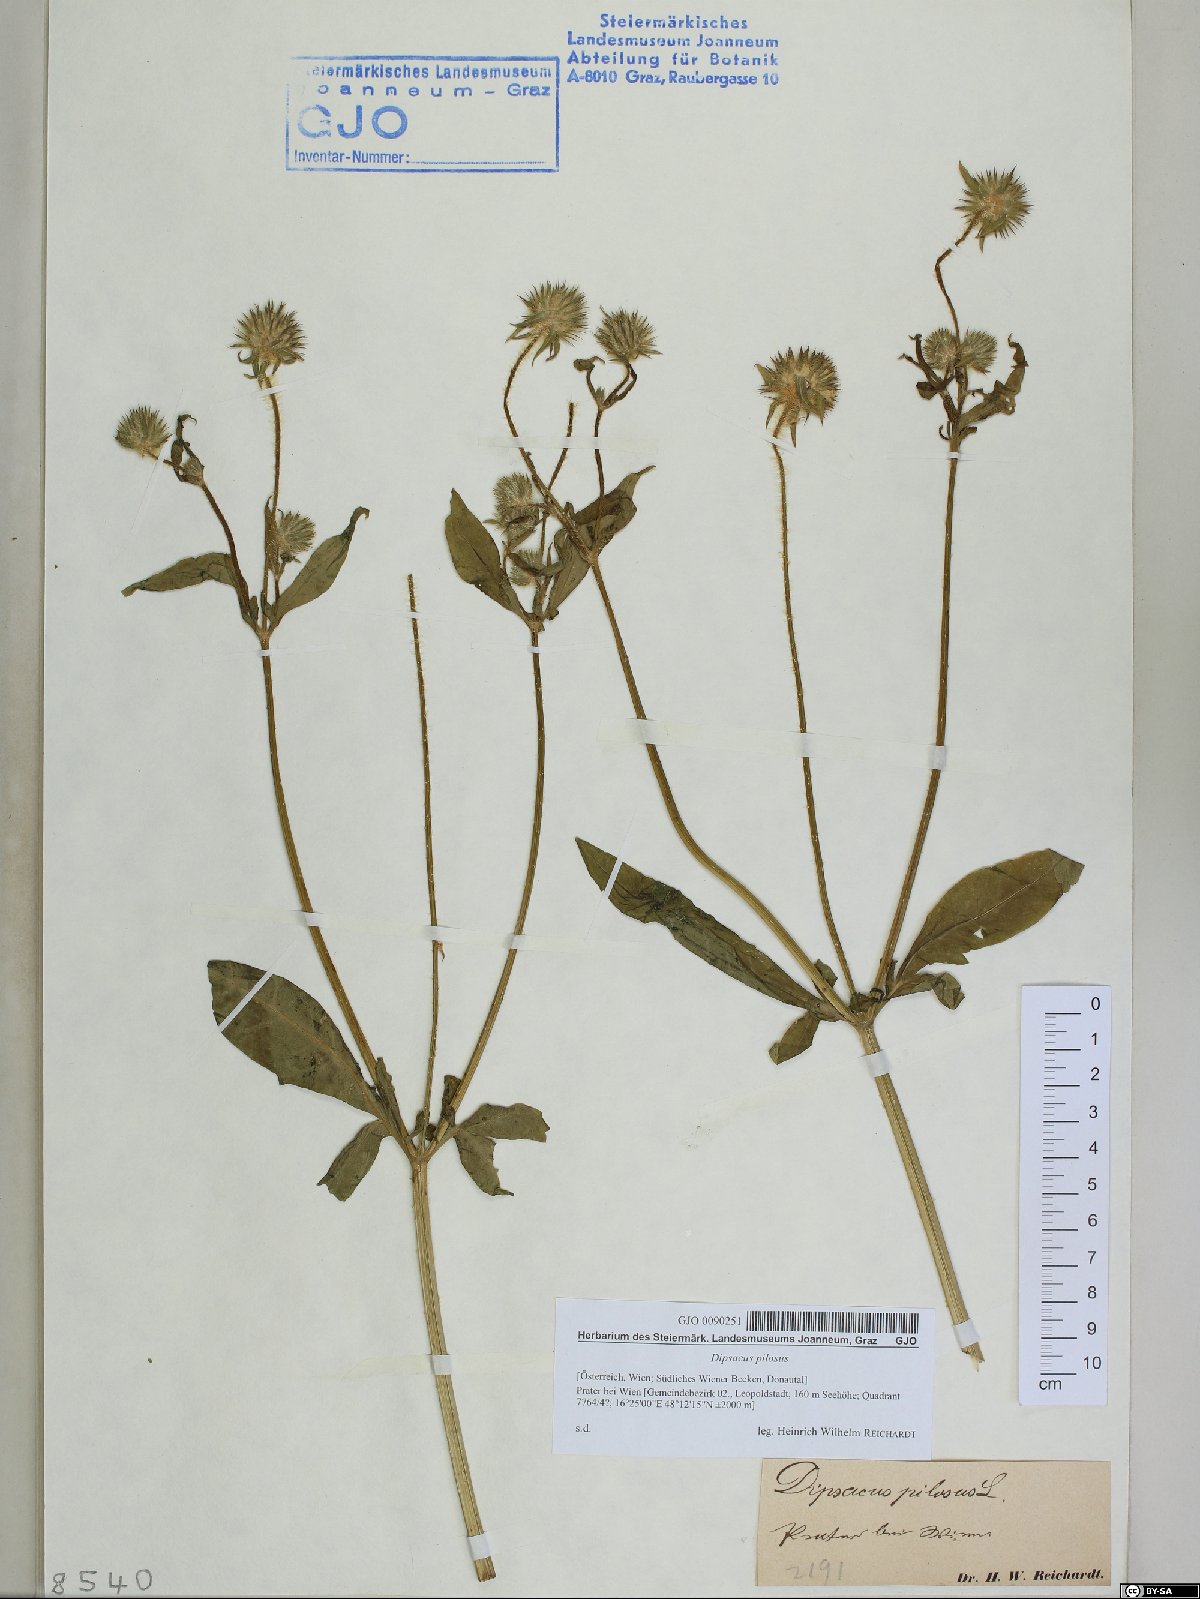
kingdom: Plantae
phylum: Tracheophyta
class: Magnoliopsida
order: Dipsacales
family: Caprifoliaceae
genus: Dipsacus
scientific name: Dipsacus pilosus
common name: Small teasel
